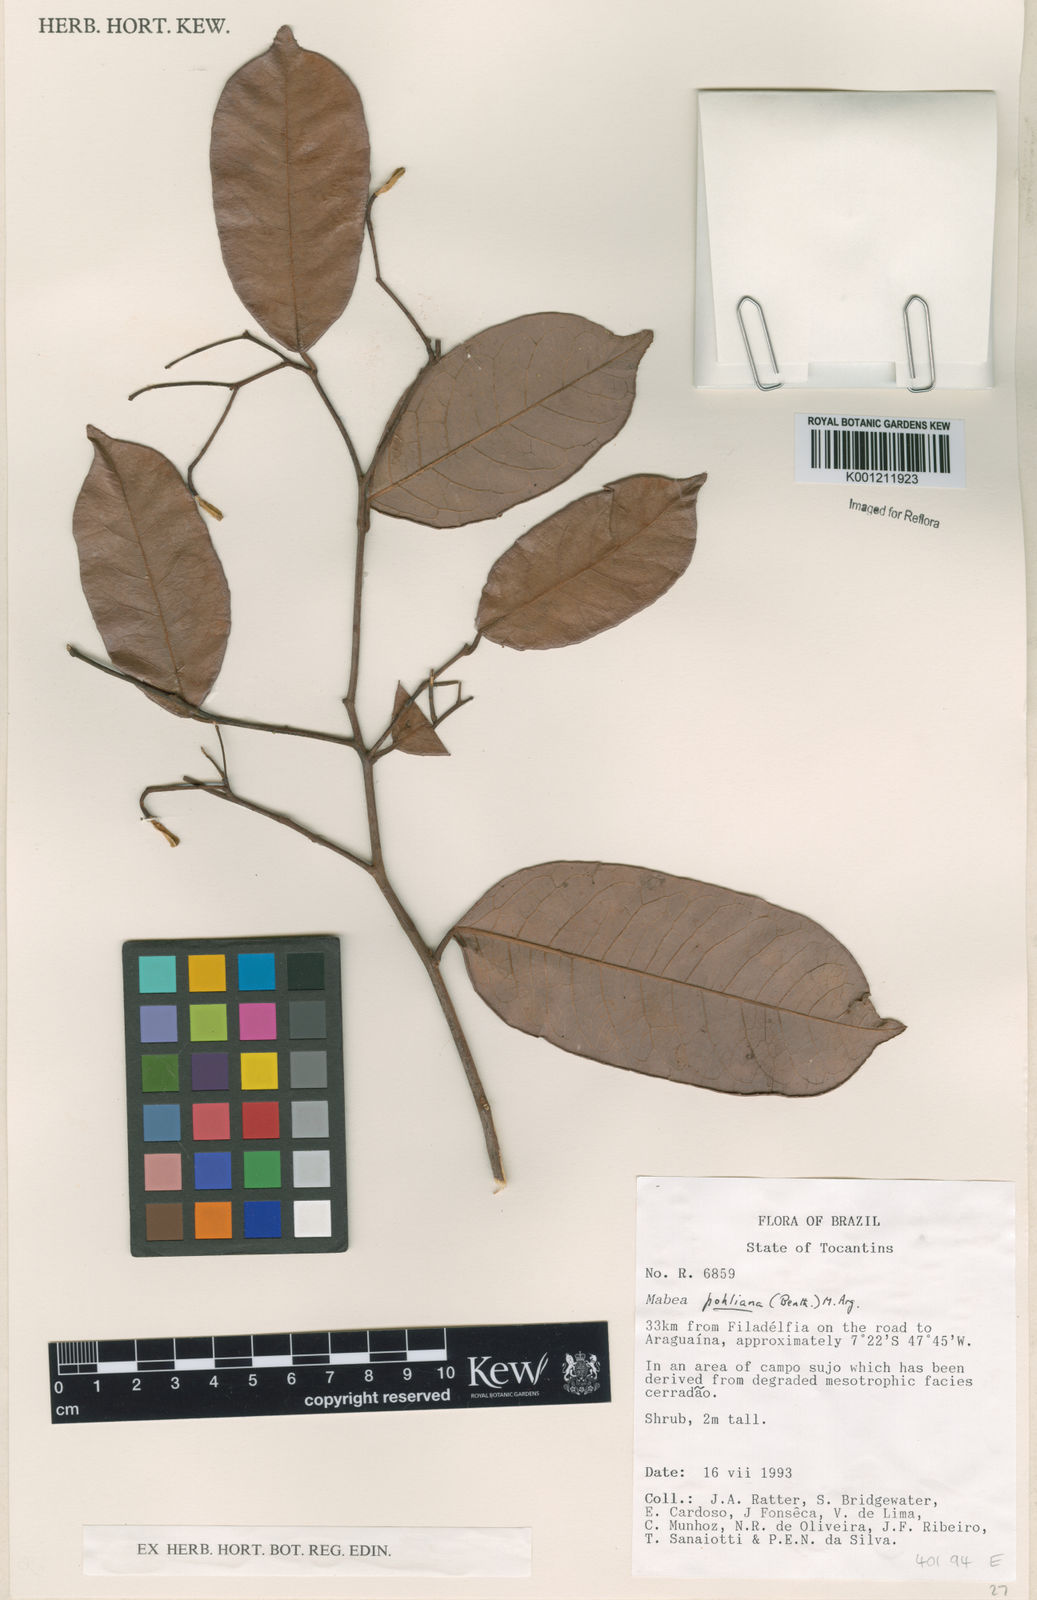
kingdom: Plantae
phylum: Tracheophyta
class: Magnoliopsida
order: Malpighiales
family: Euphorbiaceae
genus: Mabea
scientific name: Mabea
